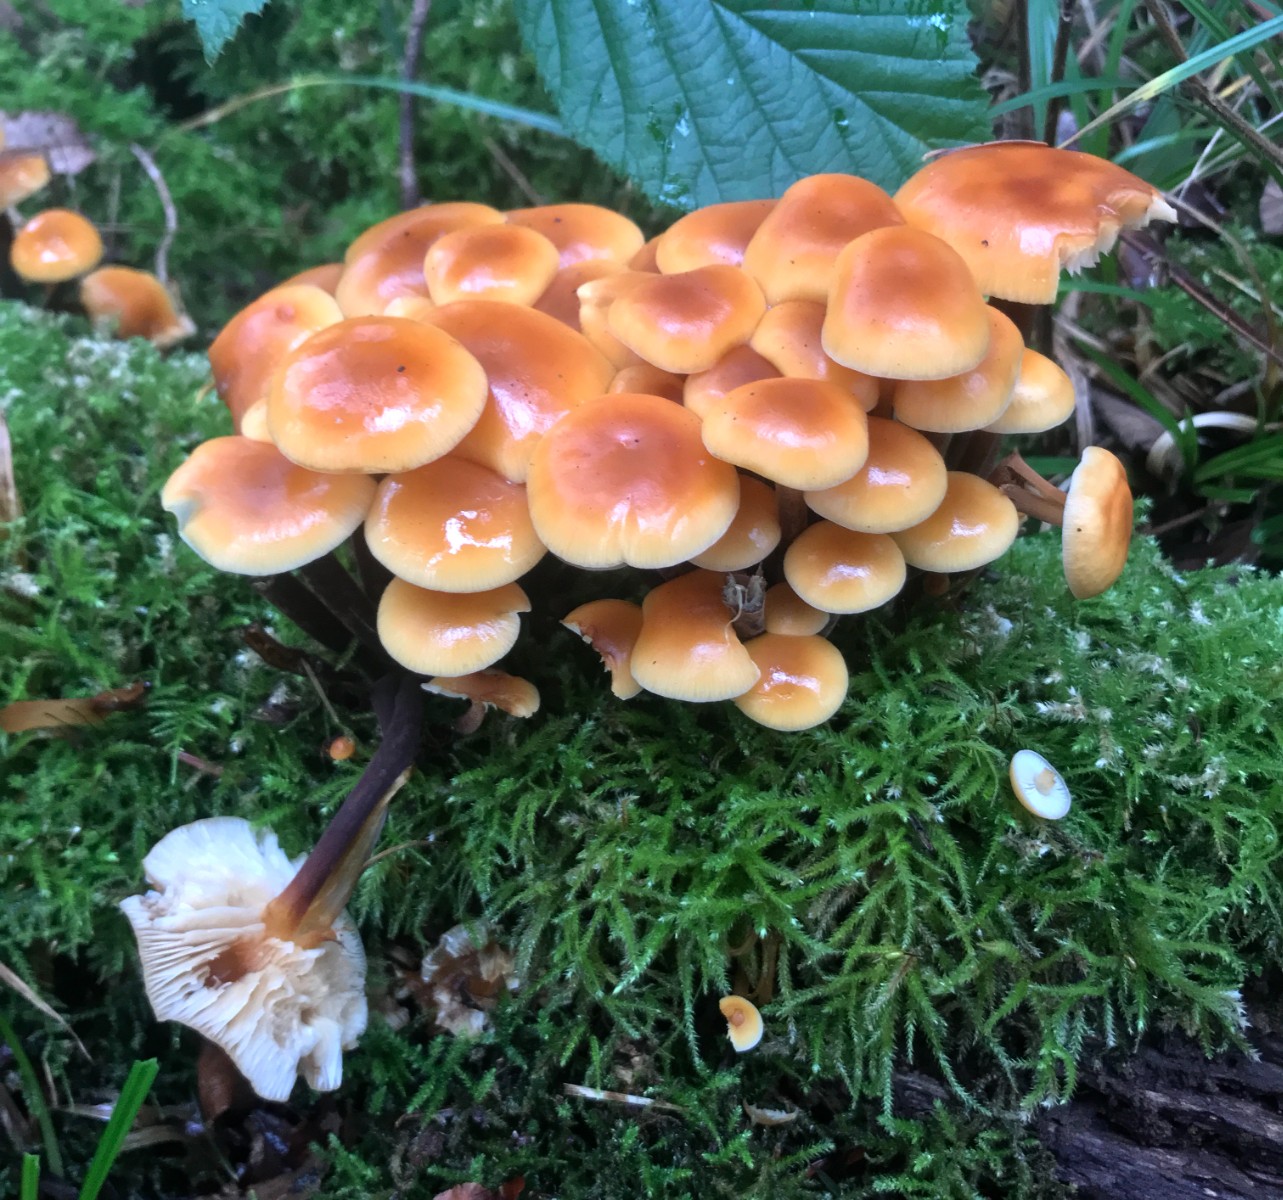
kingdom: Fungi
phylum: Basidiomycota
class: Agaricomycetes
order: Agaricales
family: Physalacriaceae
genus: Flammulina
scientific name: Flammulina velutipes
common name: gul fløjlsfod
